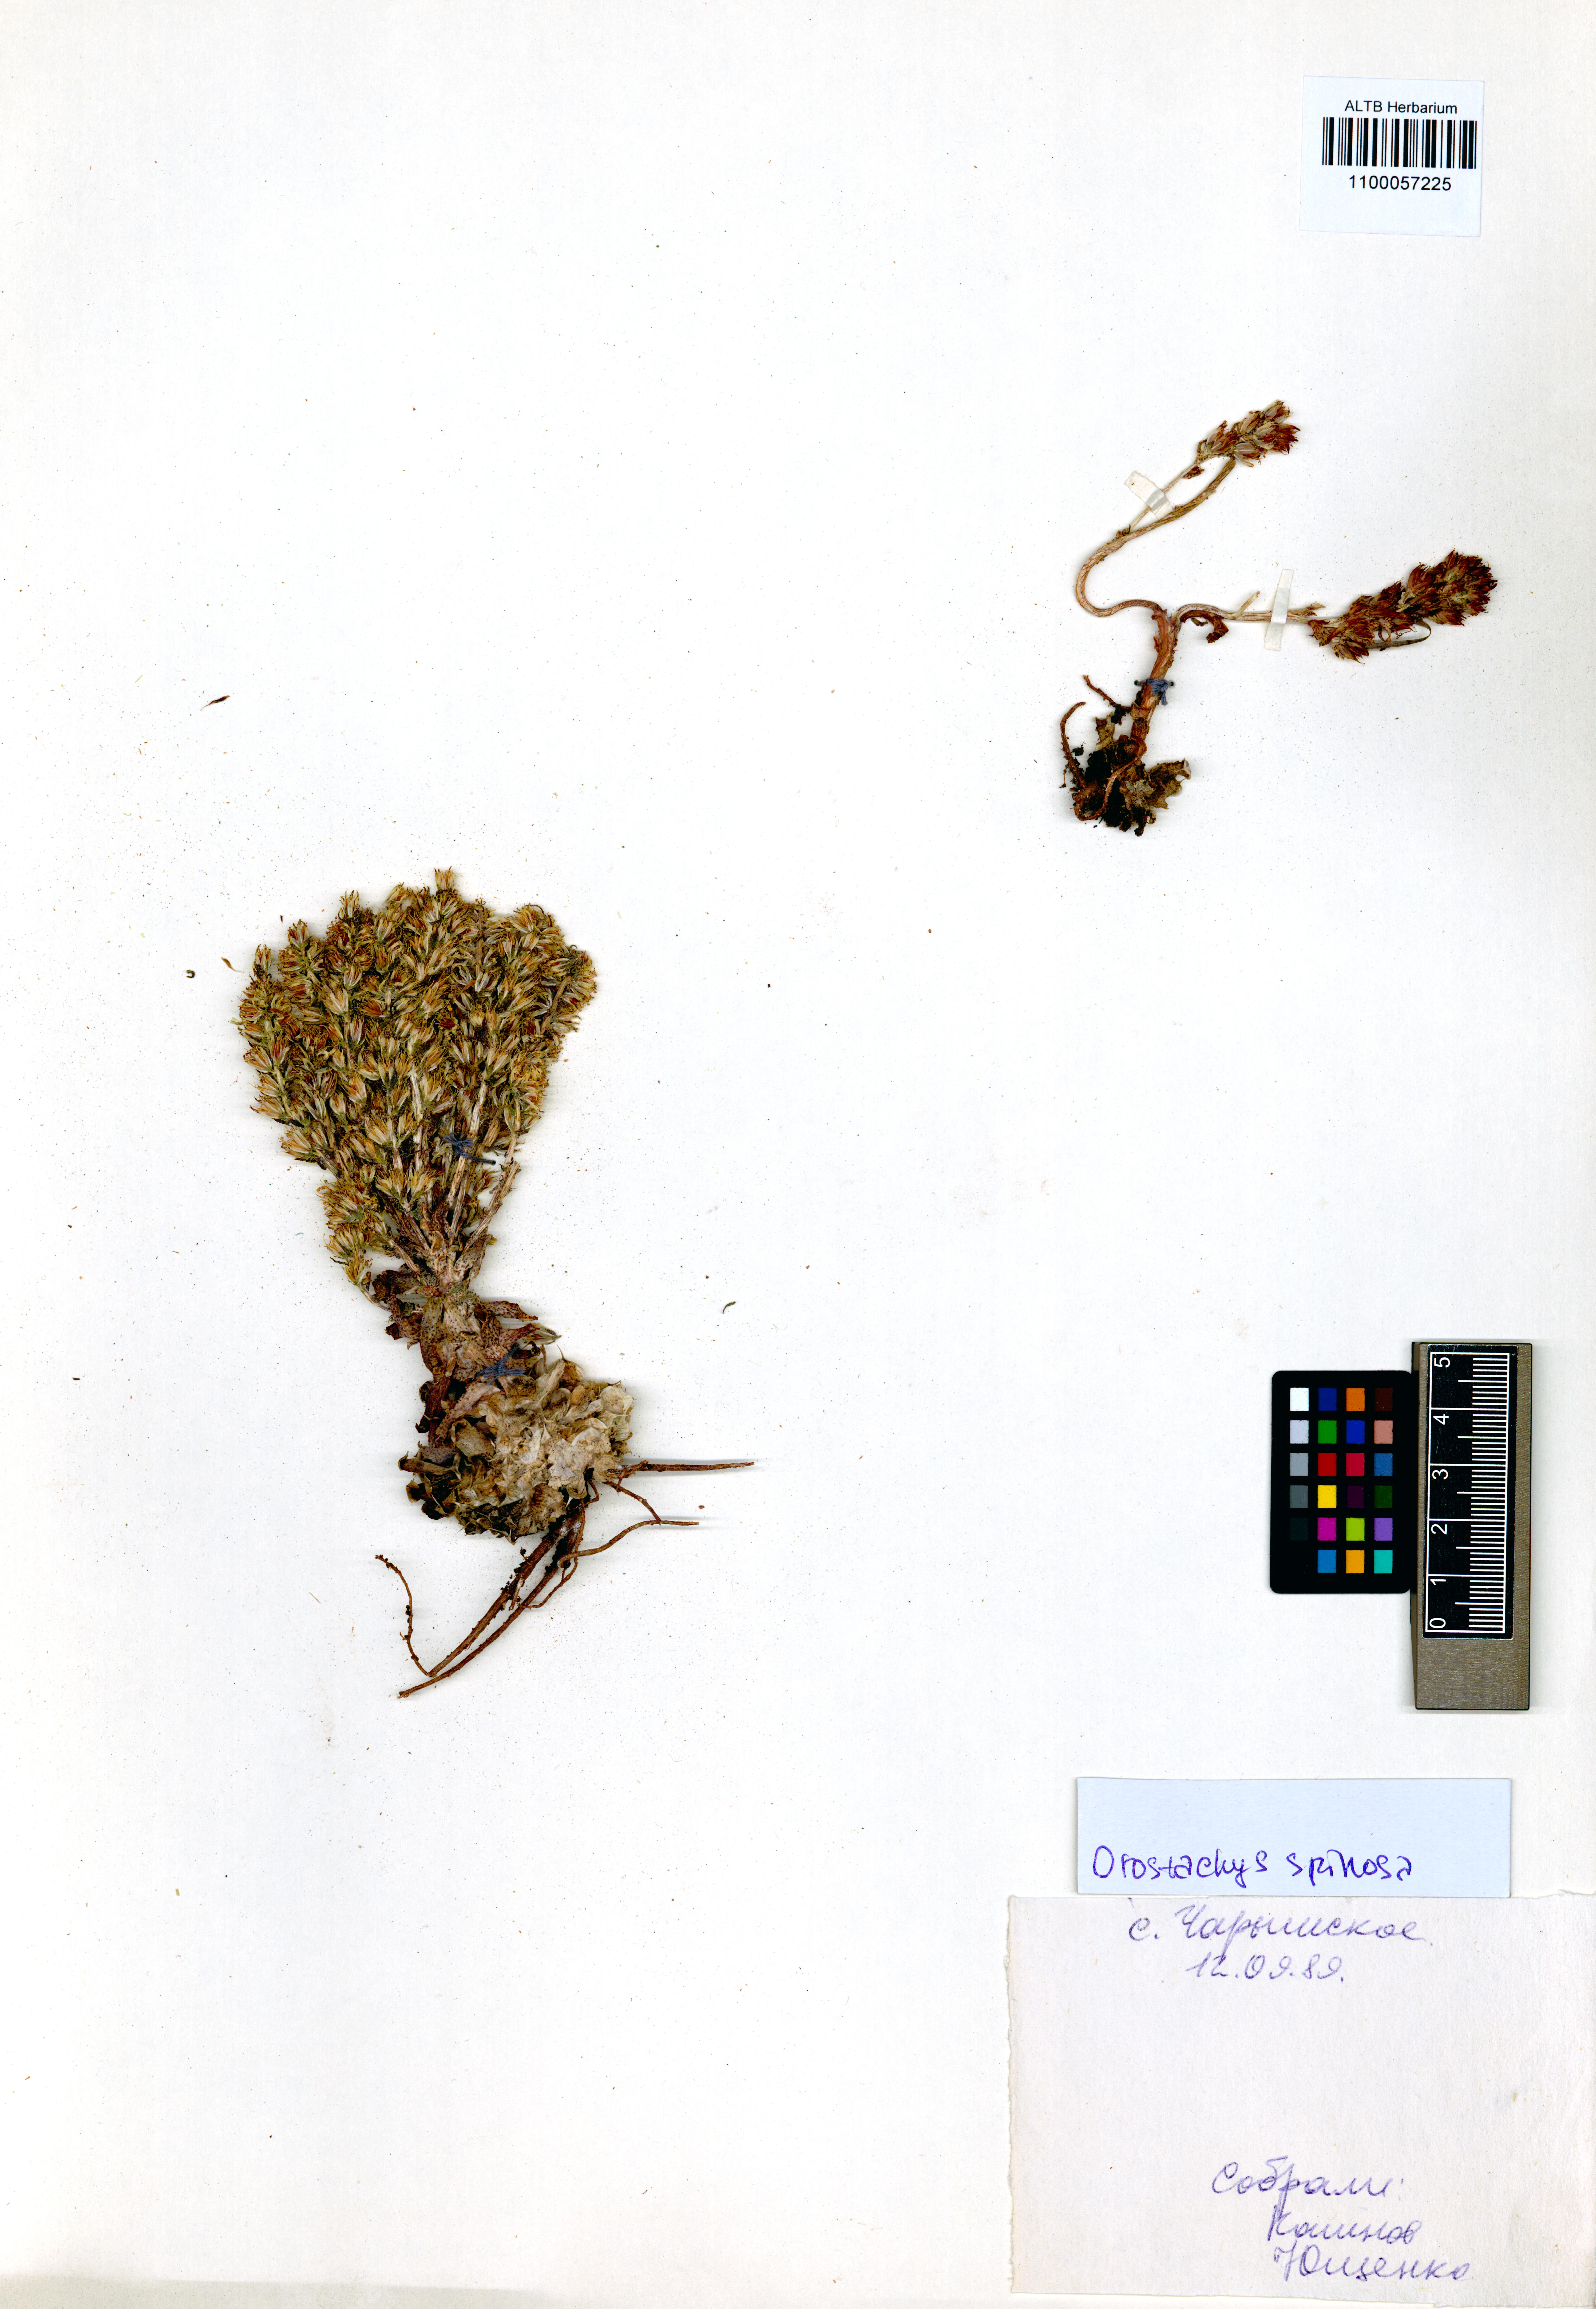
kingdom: Plantae
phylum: Tracheophyta
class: Magnoliopsida
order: Saxifragales
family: Crassulaceae
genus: Orostachys
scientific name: Orostachys spinosa
